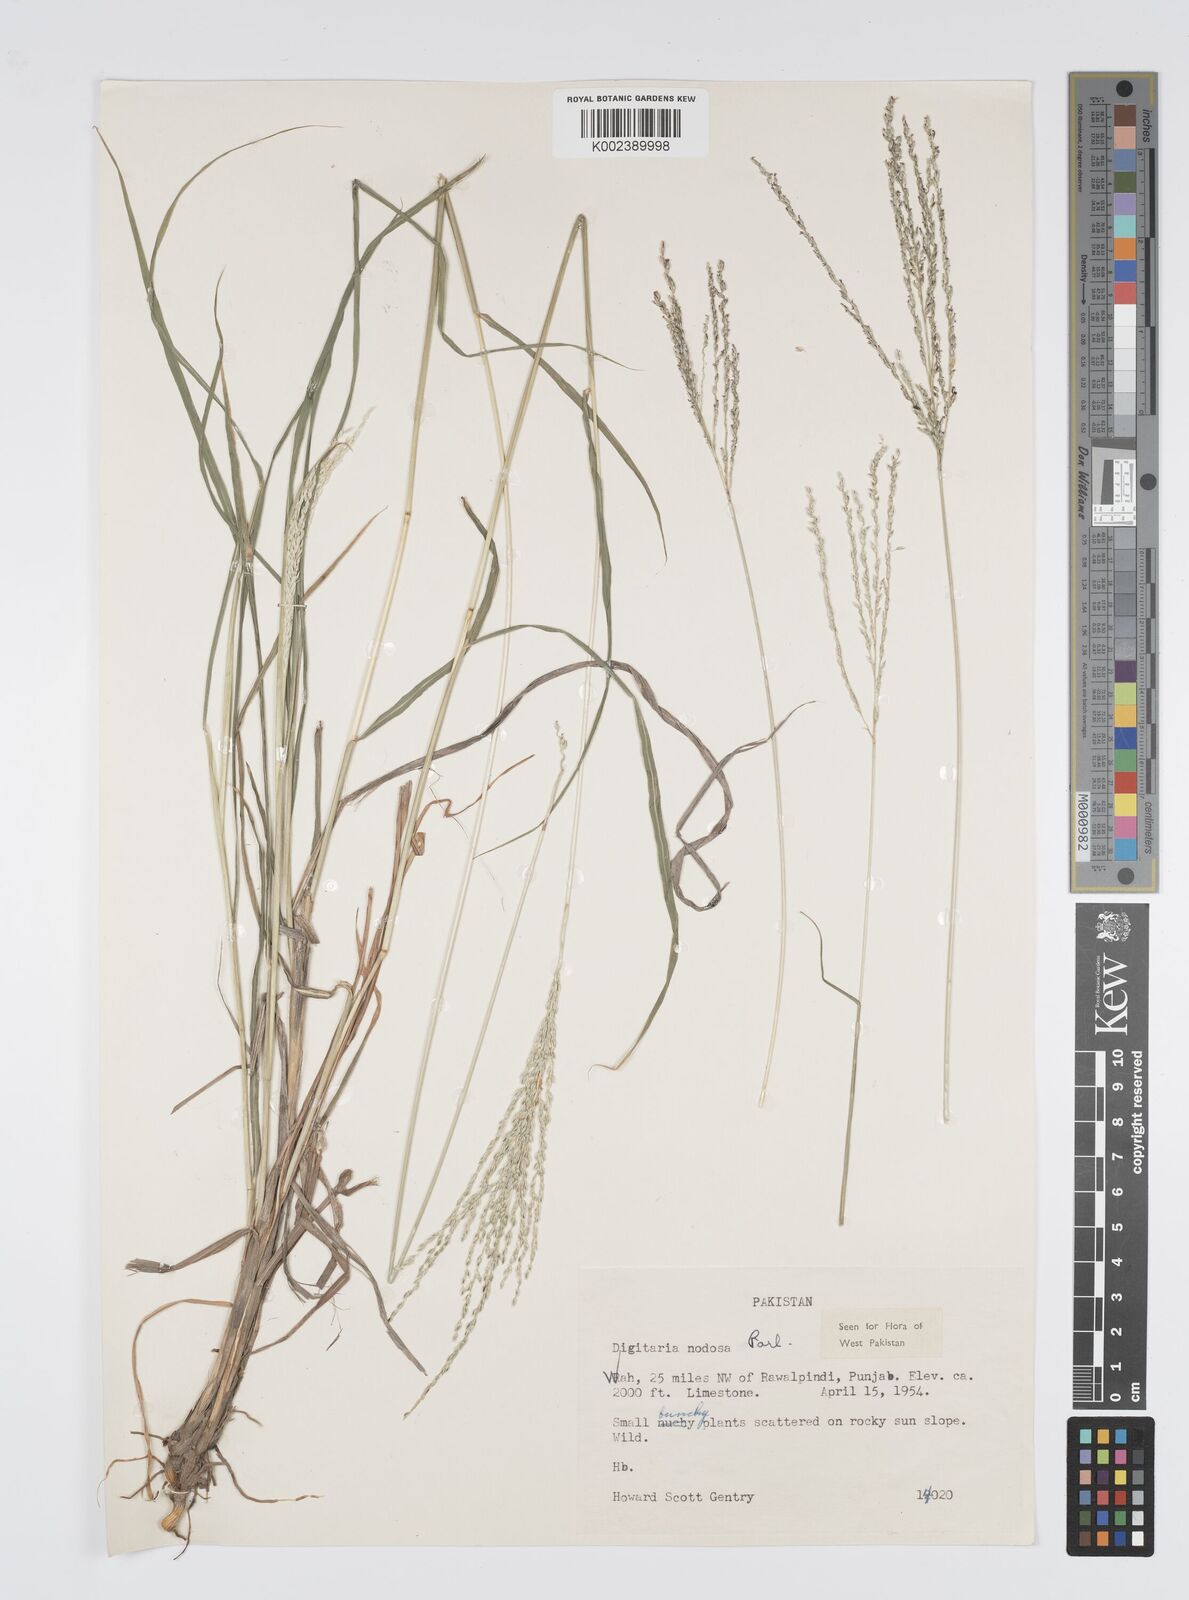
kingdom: Plantae
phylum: Tracheophyta
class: Liliopsida
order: Poales
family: Poaceae
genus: Digitaria
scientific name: Digitaria nodosa
